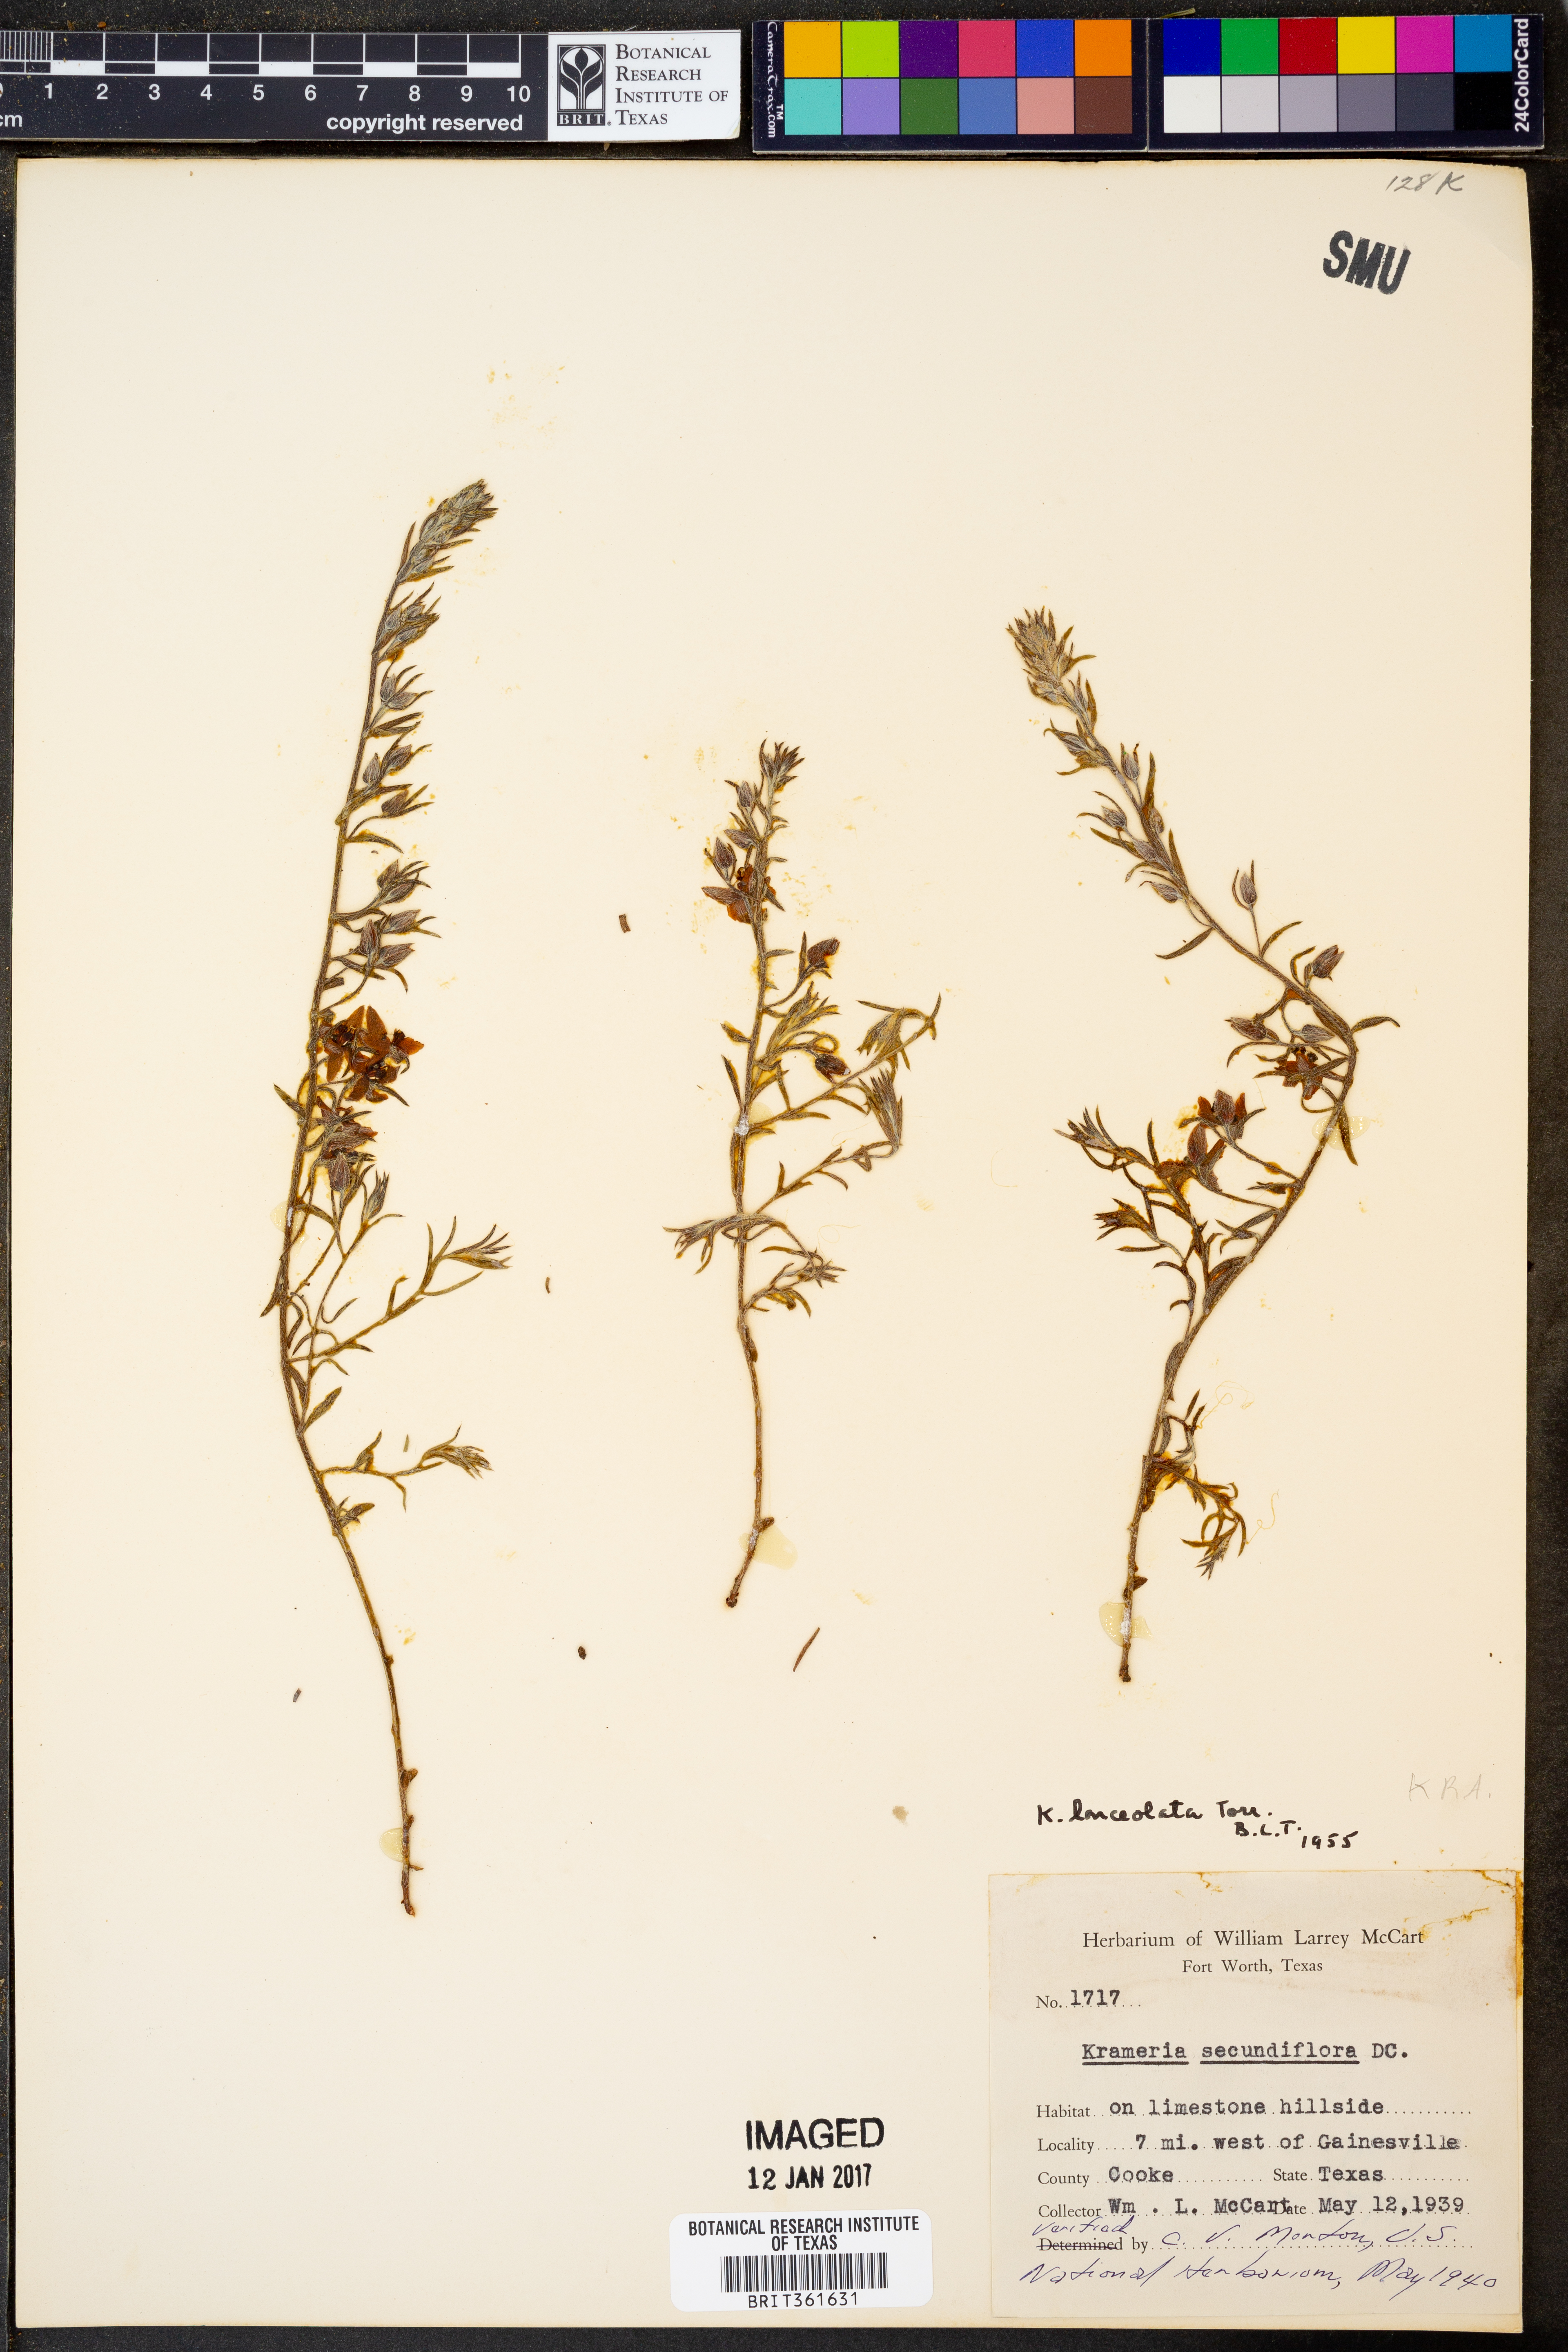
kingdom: Plantae
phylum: Tracheophyta
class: Magnoliopsida
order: Zygophyllales
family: Krameriaceae
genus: Krameria
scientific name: Krameria lanceolata
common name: Ratany
